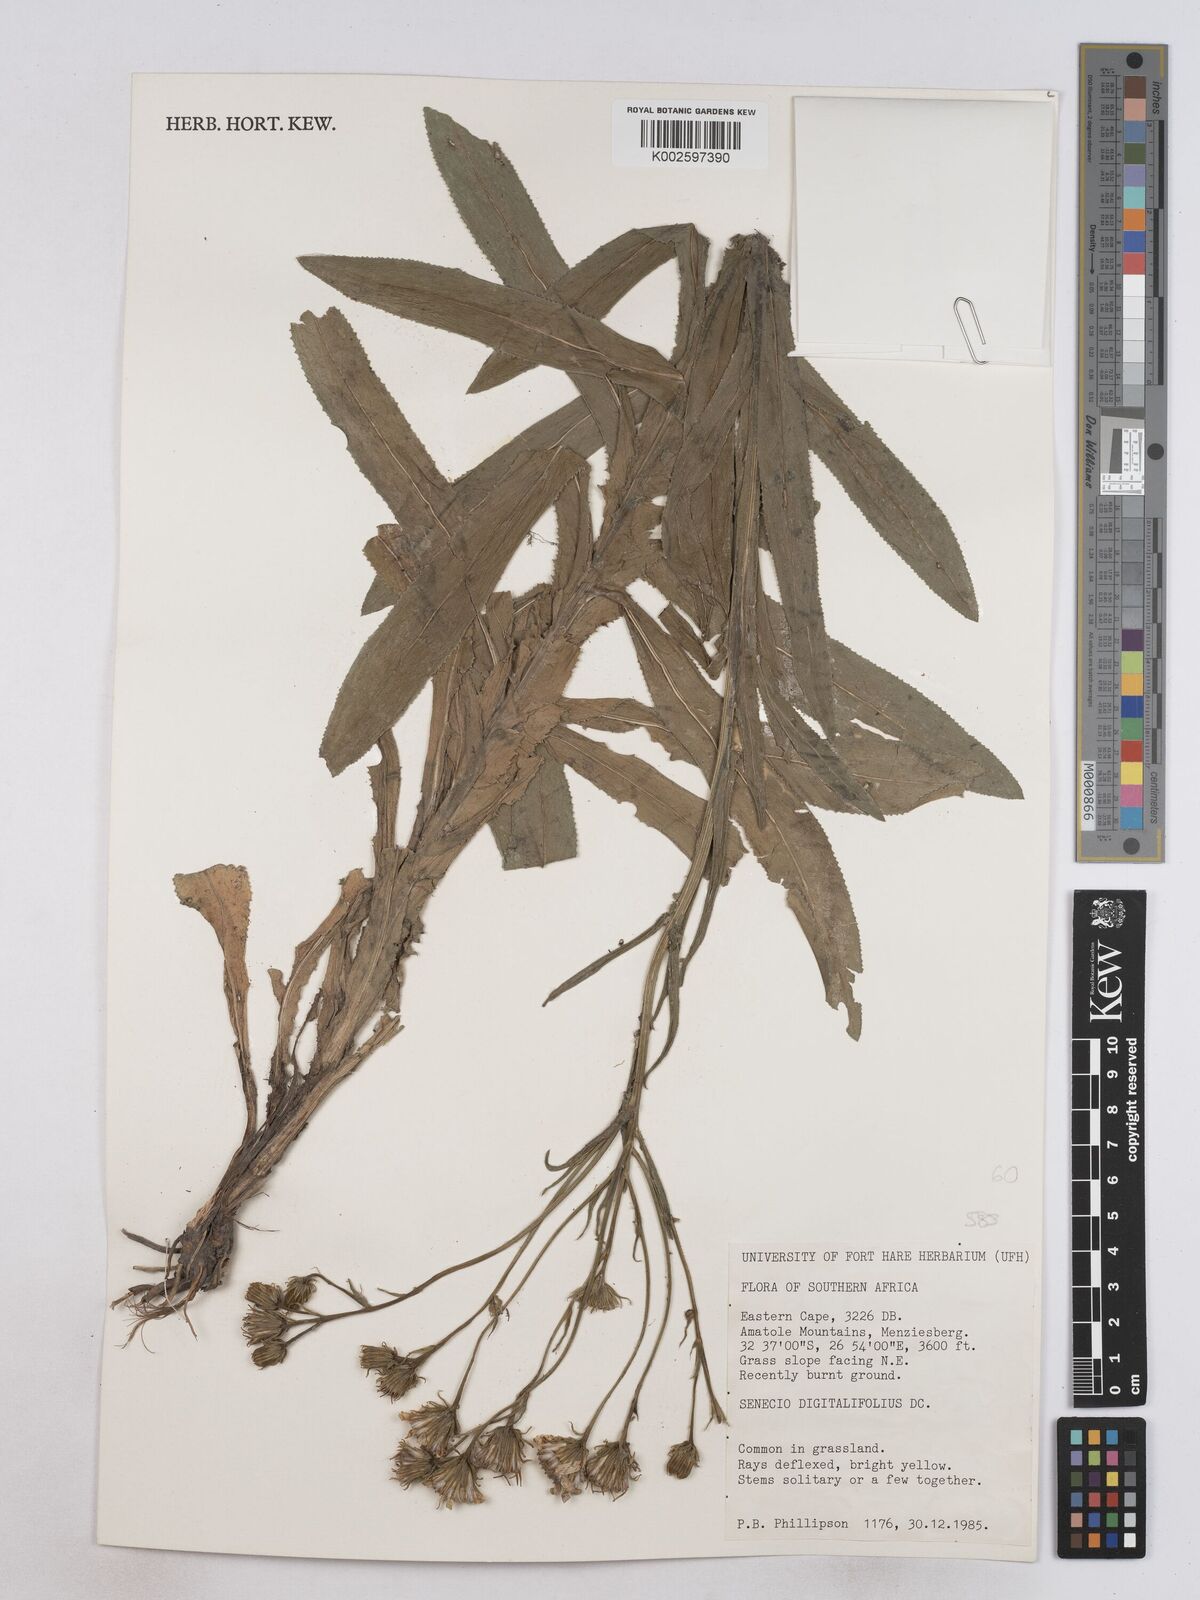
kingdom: Plantae
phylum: Tracheophyta
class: Magnoliopsida
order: Asterales
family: Asteraceae
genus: Senecio
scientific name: Senecio digitalifolius
